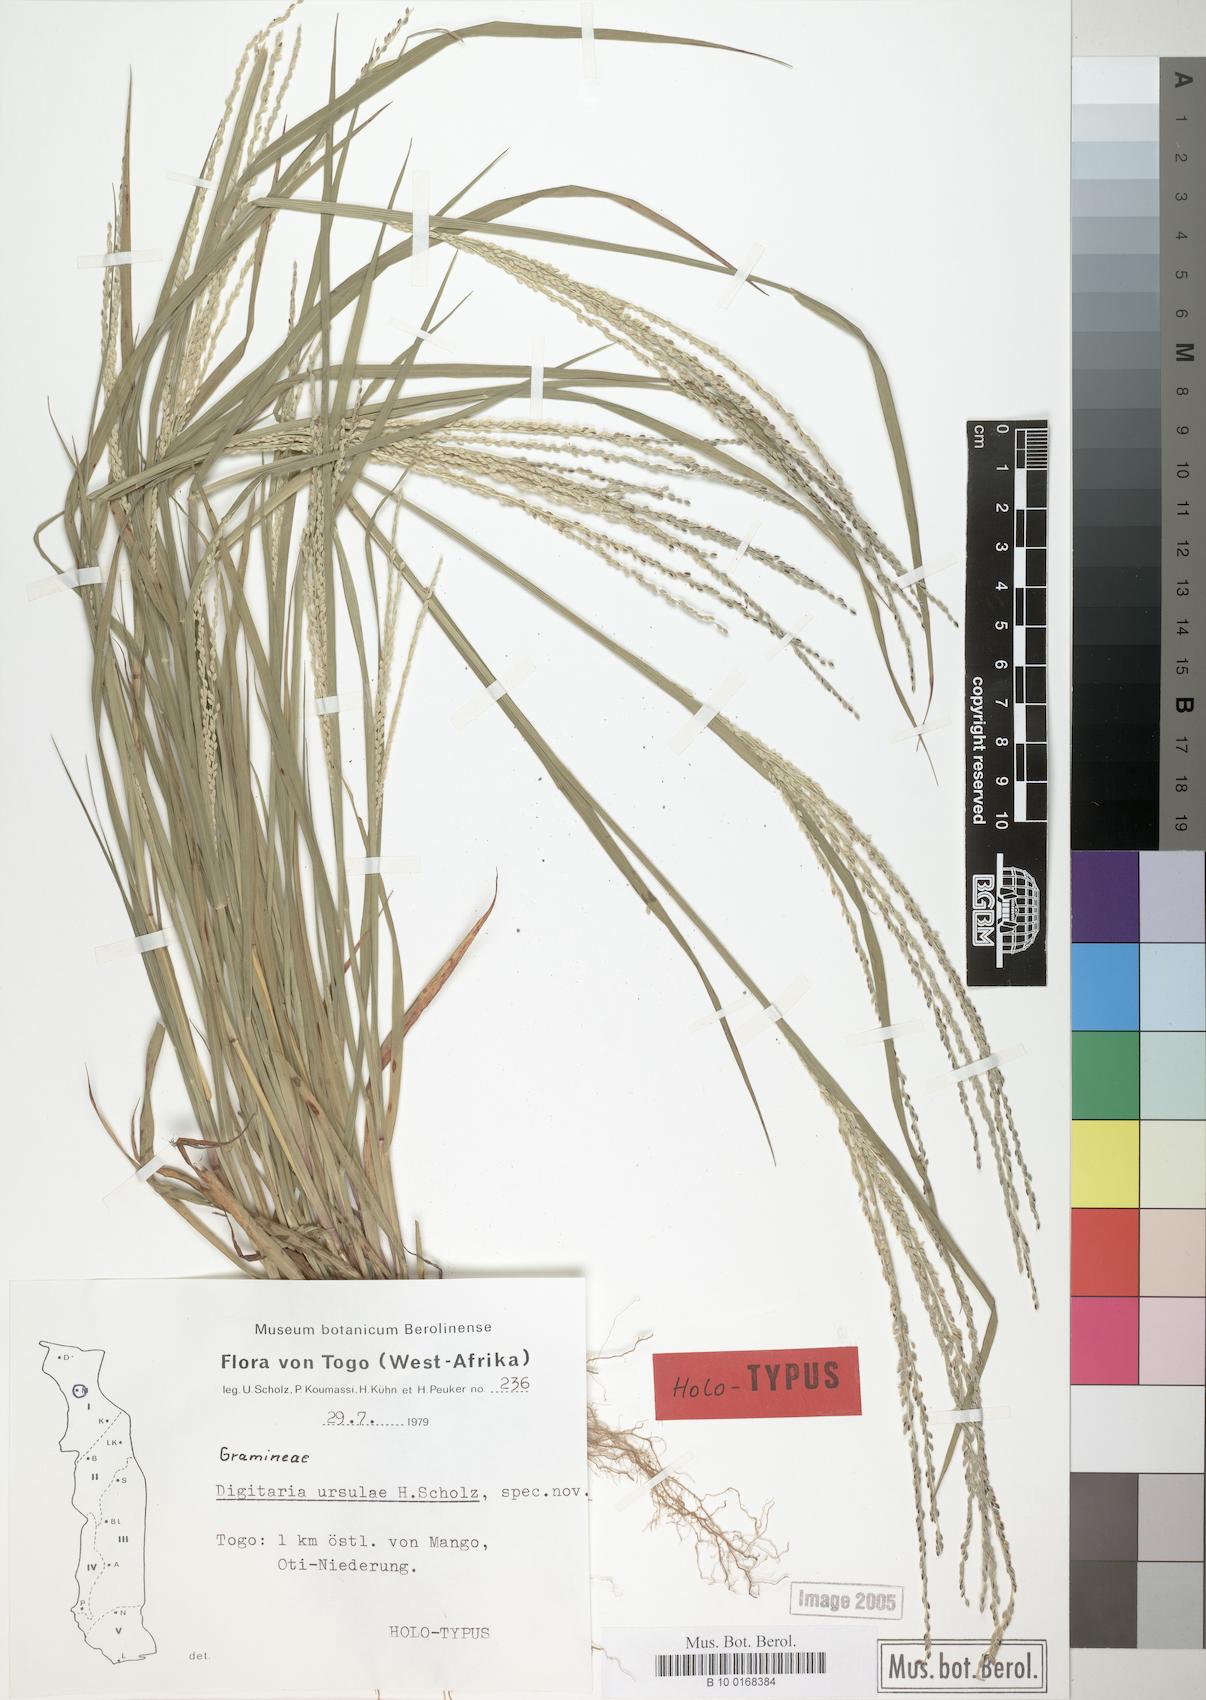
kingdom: Plantae
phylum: Tracheophyta
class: Liliopsida
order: Poales
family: Poaceae
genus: Digitaria
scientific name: Digitaria ursulae
